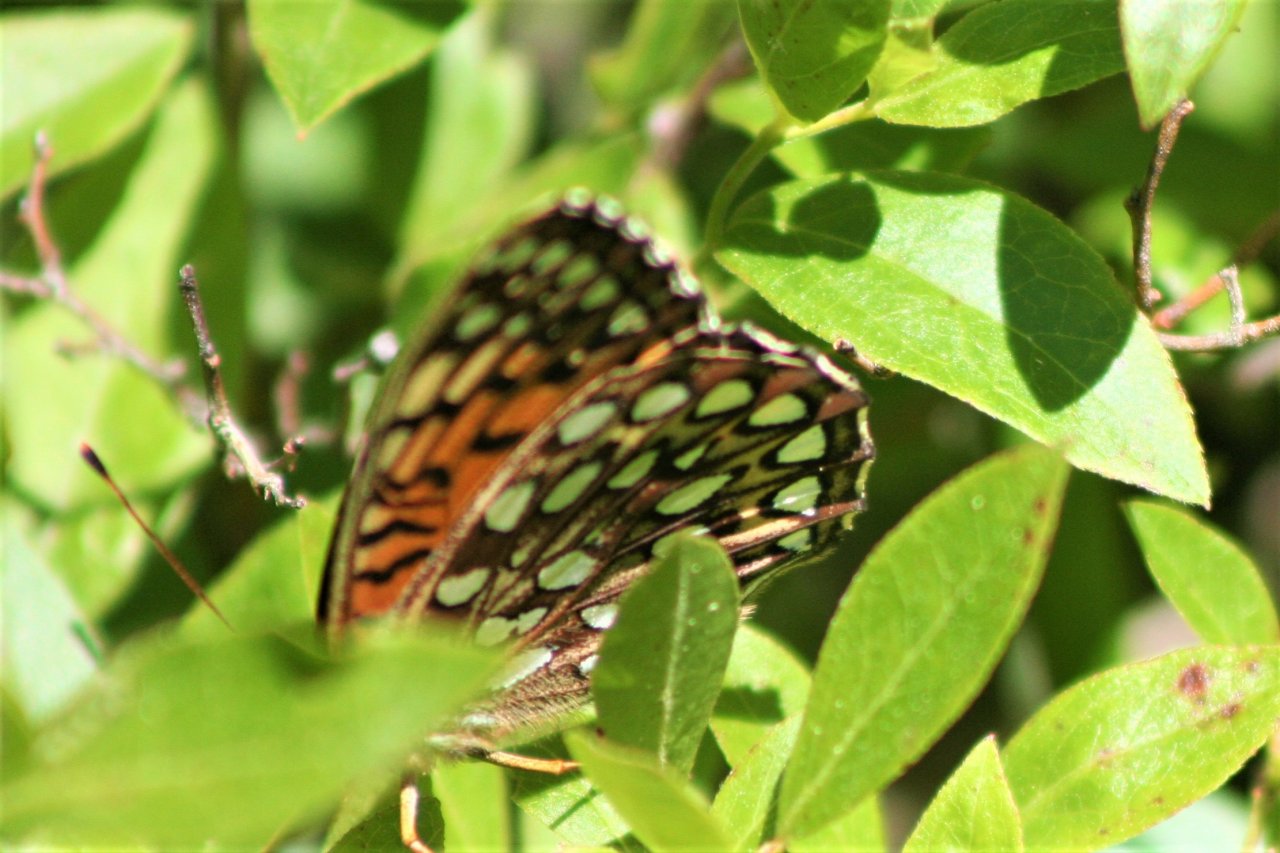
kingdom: Animalia
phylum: Arthropoda
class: Insecta
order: Lepidoptera
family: Nymphalidae
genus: Speyeria
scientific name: Speyeria atlantis
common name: Atlantis Fritillary
